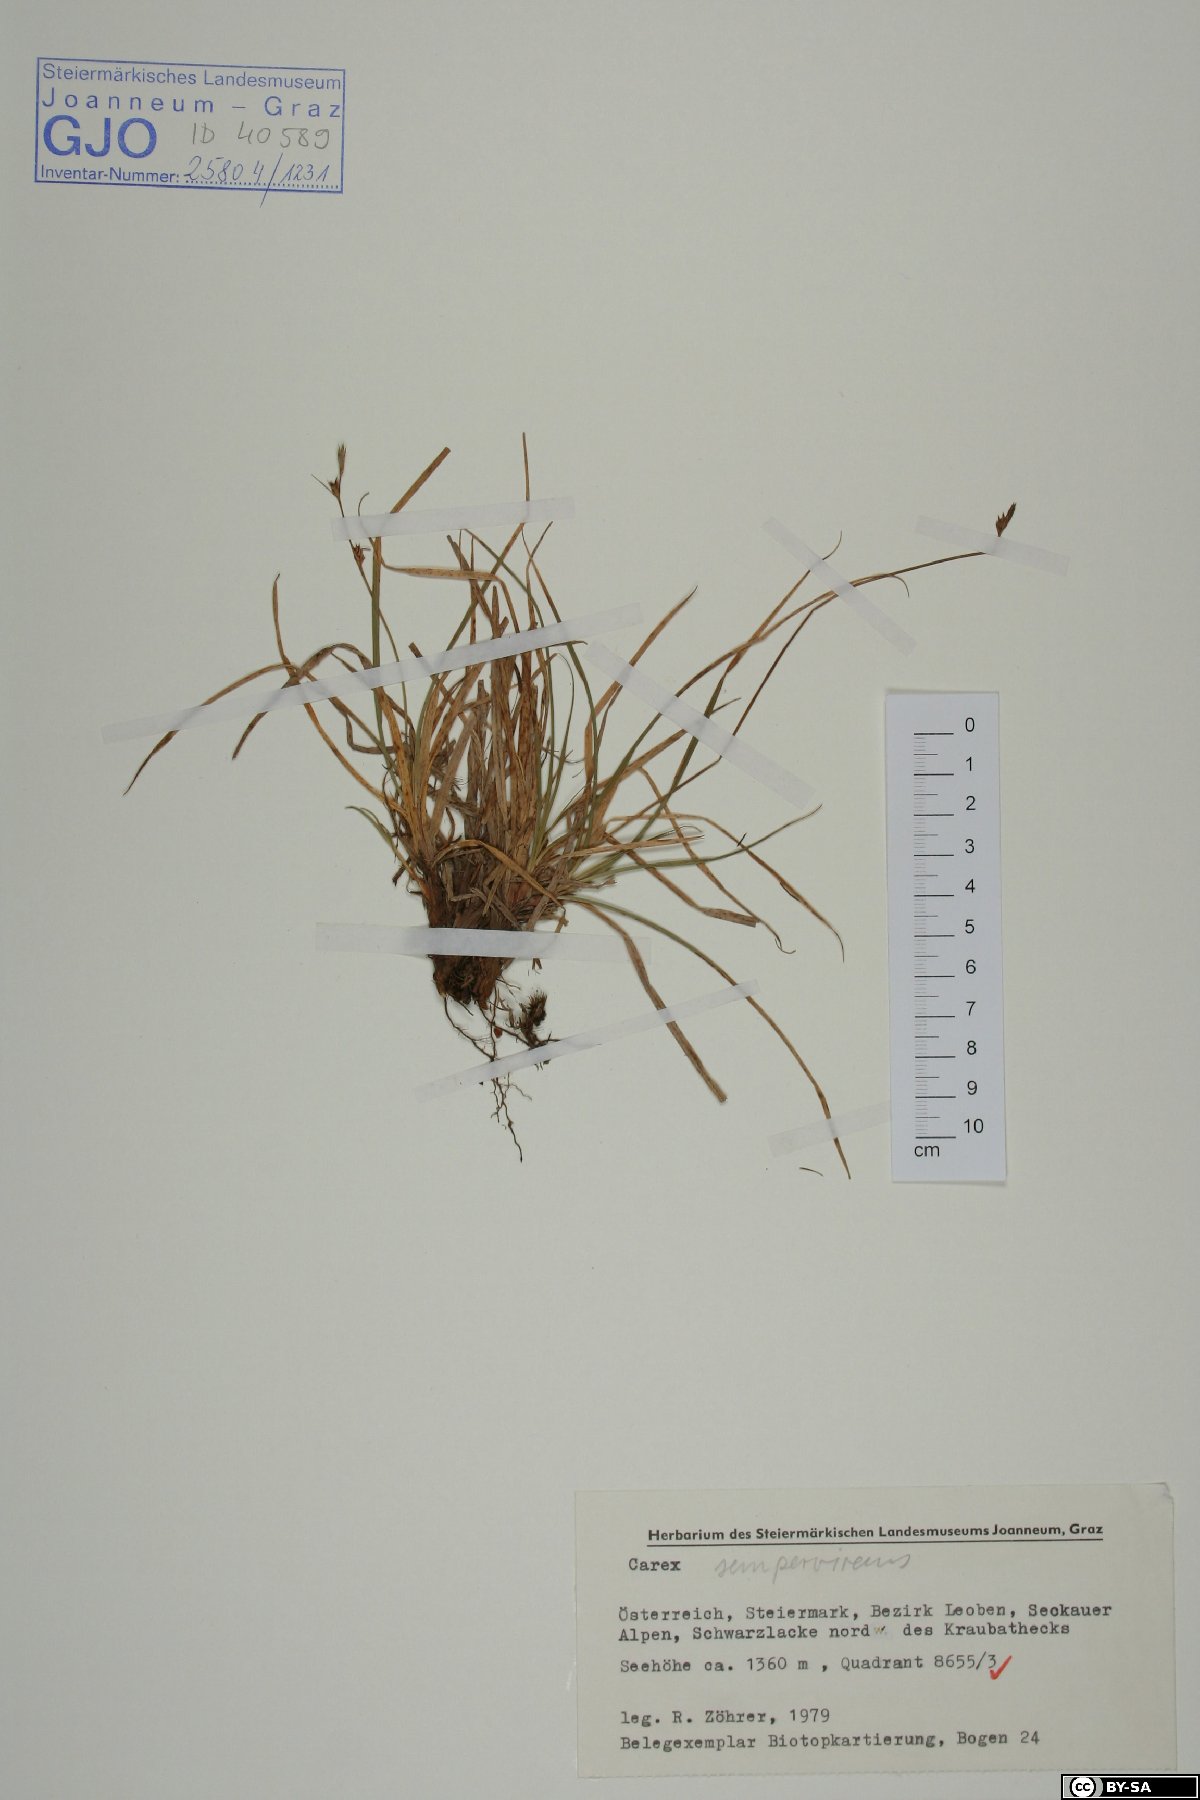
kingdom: Plantae
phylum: Tracheophyta
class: Liliopsida
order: Poales
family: Cyperaceae
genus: Carex
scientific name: Carex sempervirens
